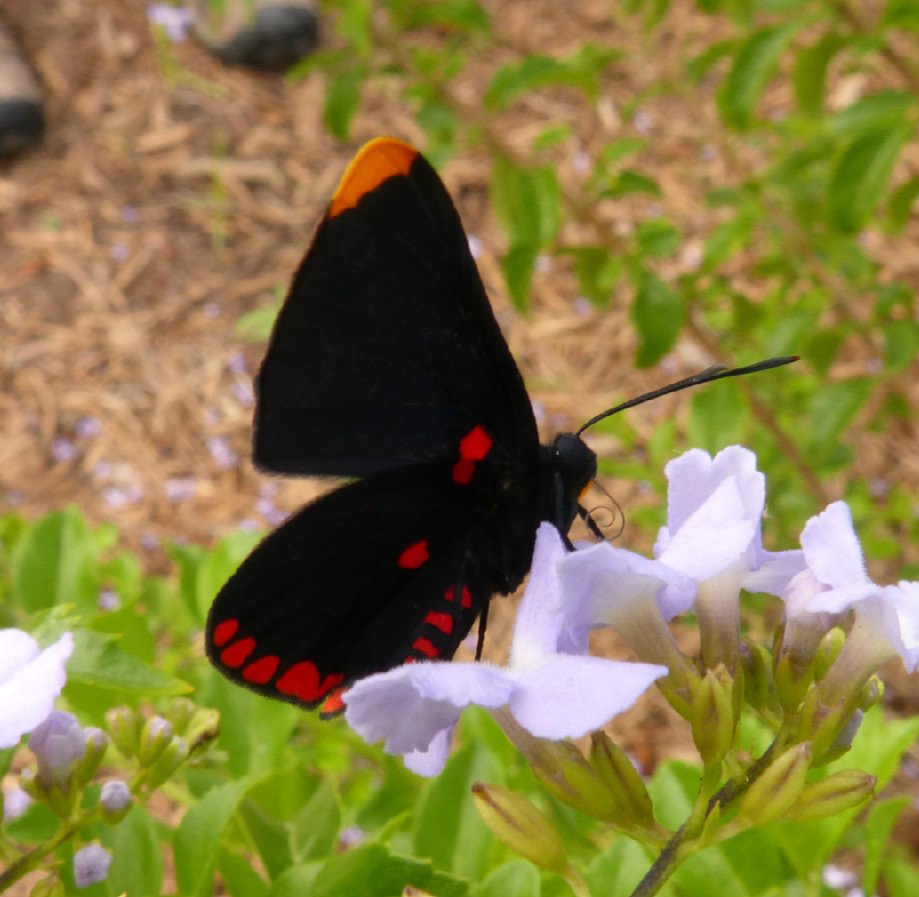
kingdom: Animalia
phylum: Arthropoda
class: Insecta
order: Lepidoptera
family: Lycaenidae
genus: Melanis
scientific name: Melanis pixe
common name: Red-bordered Pixie
